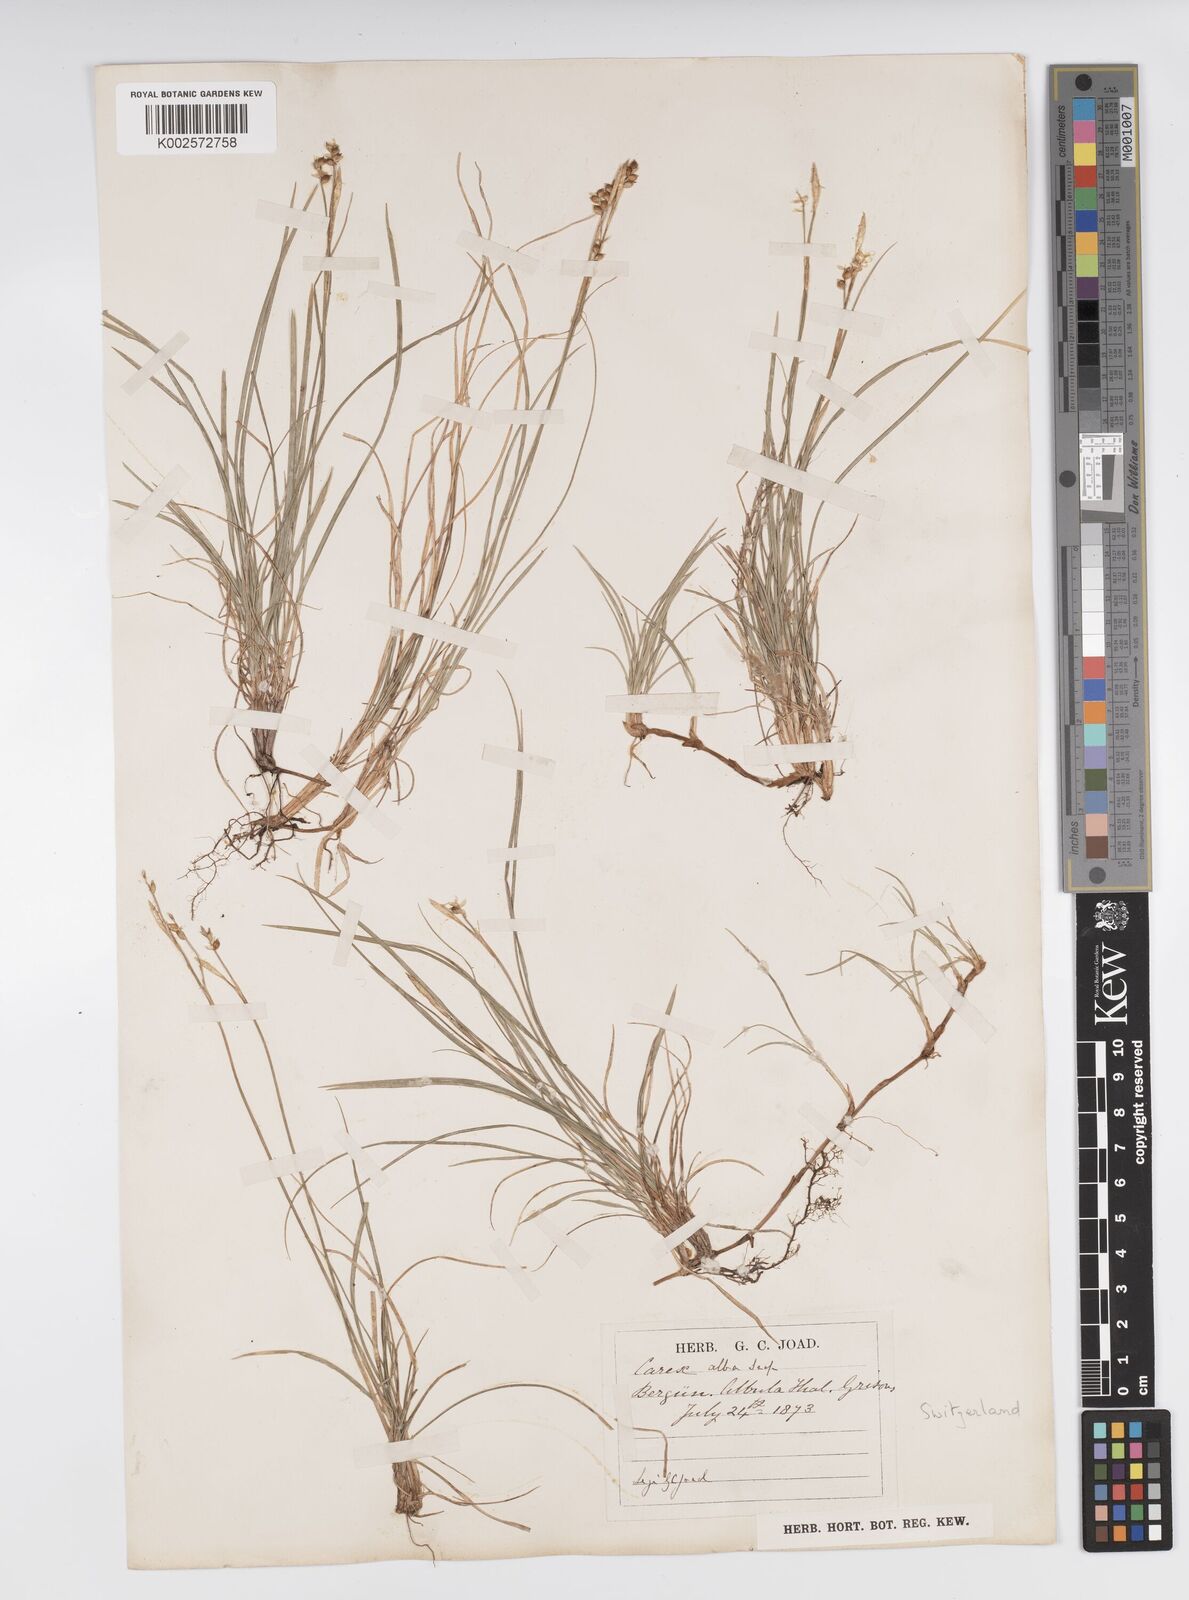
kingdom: Plantae
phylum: Tracheophyta
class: Liliopsida
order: Poales
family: Cyperaceae
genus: Carex
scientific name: Carex alba
